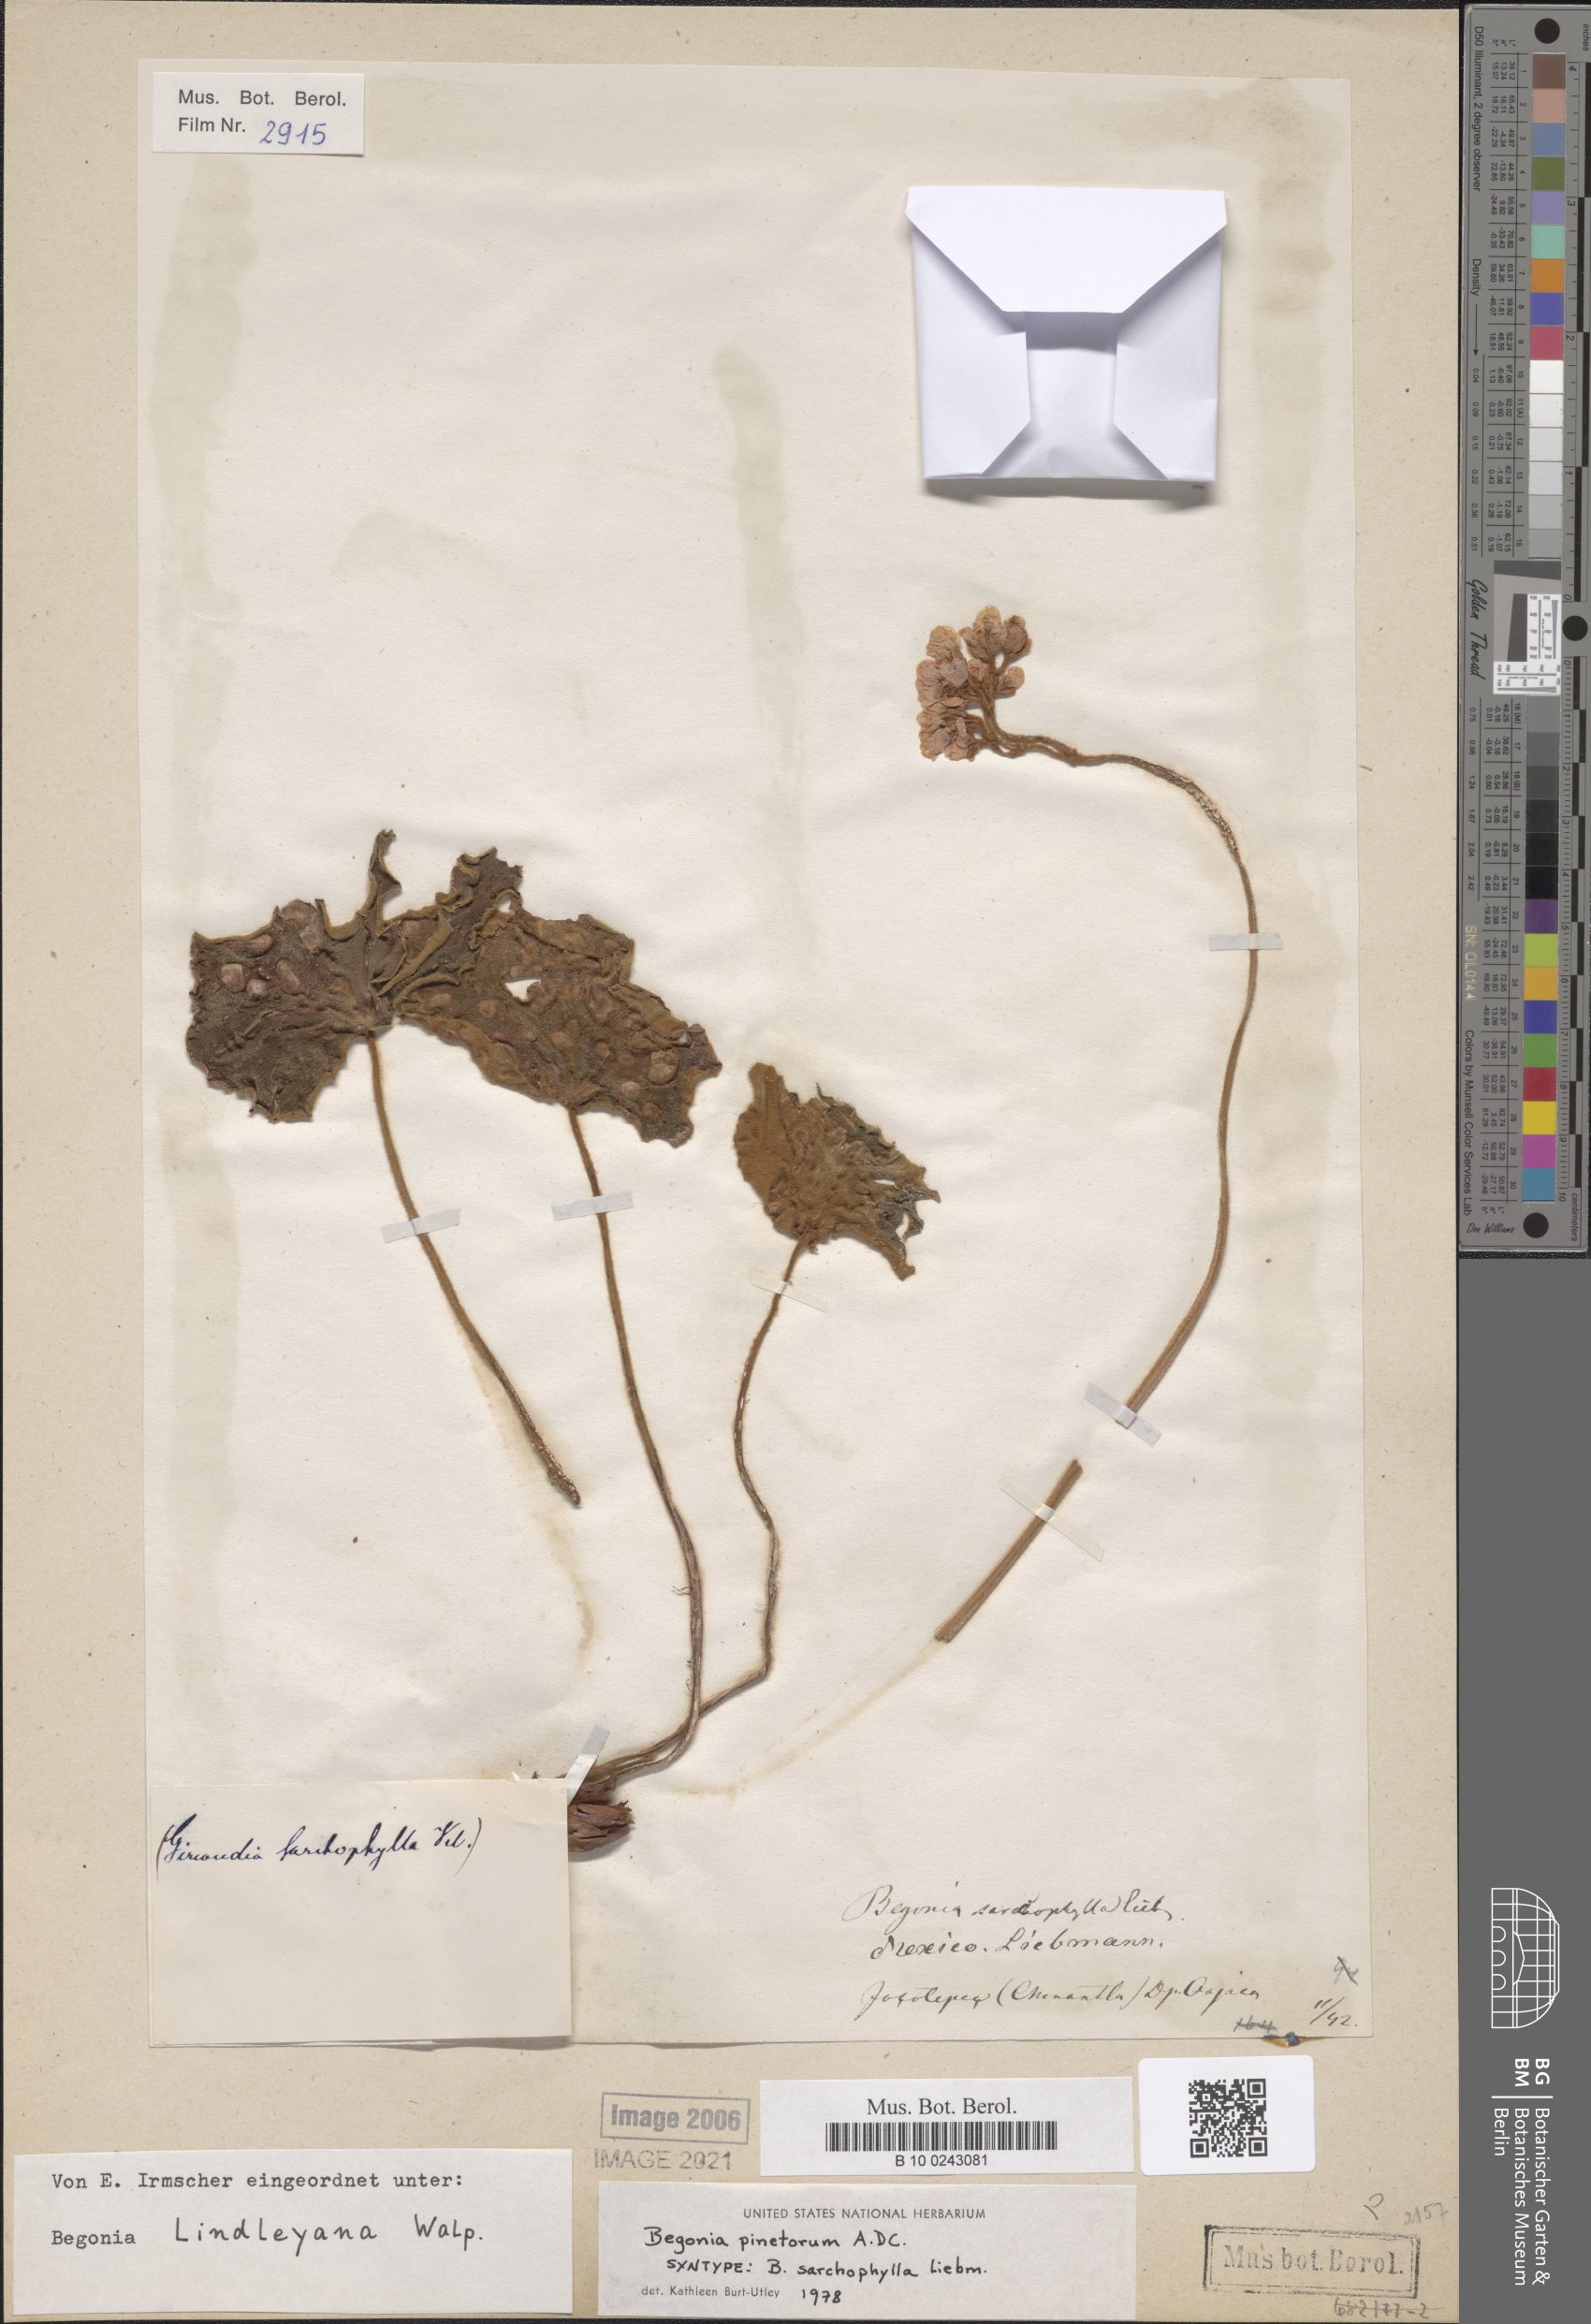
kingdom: Plantae
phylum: Tracheophyta
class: Magnoliopsida
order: Cucurbitales
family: Begoniaceae
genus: Begonia
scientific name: Begonia pinetorum
